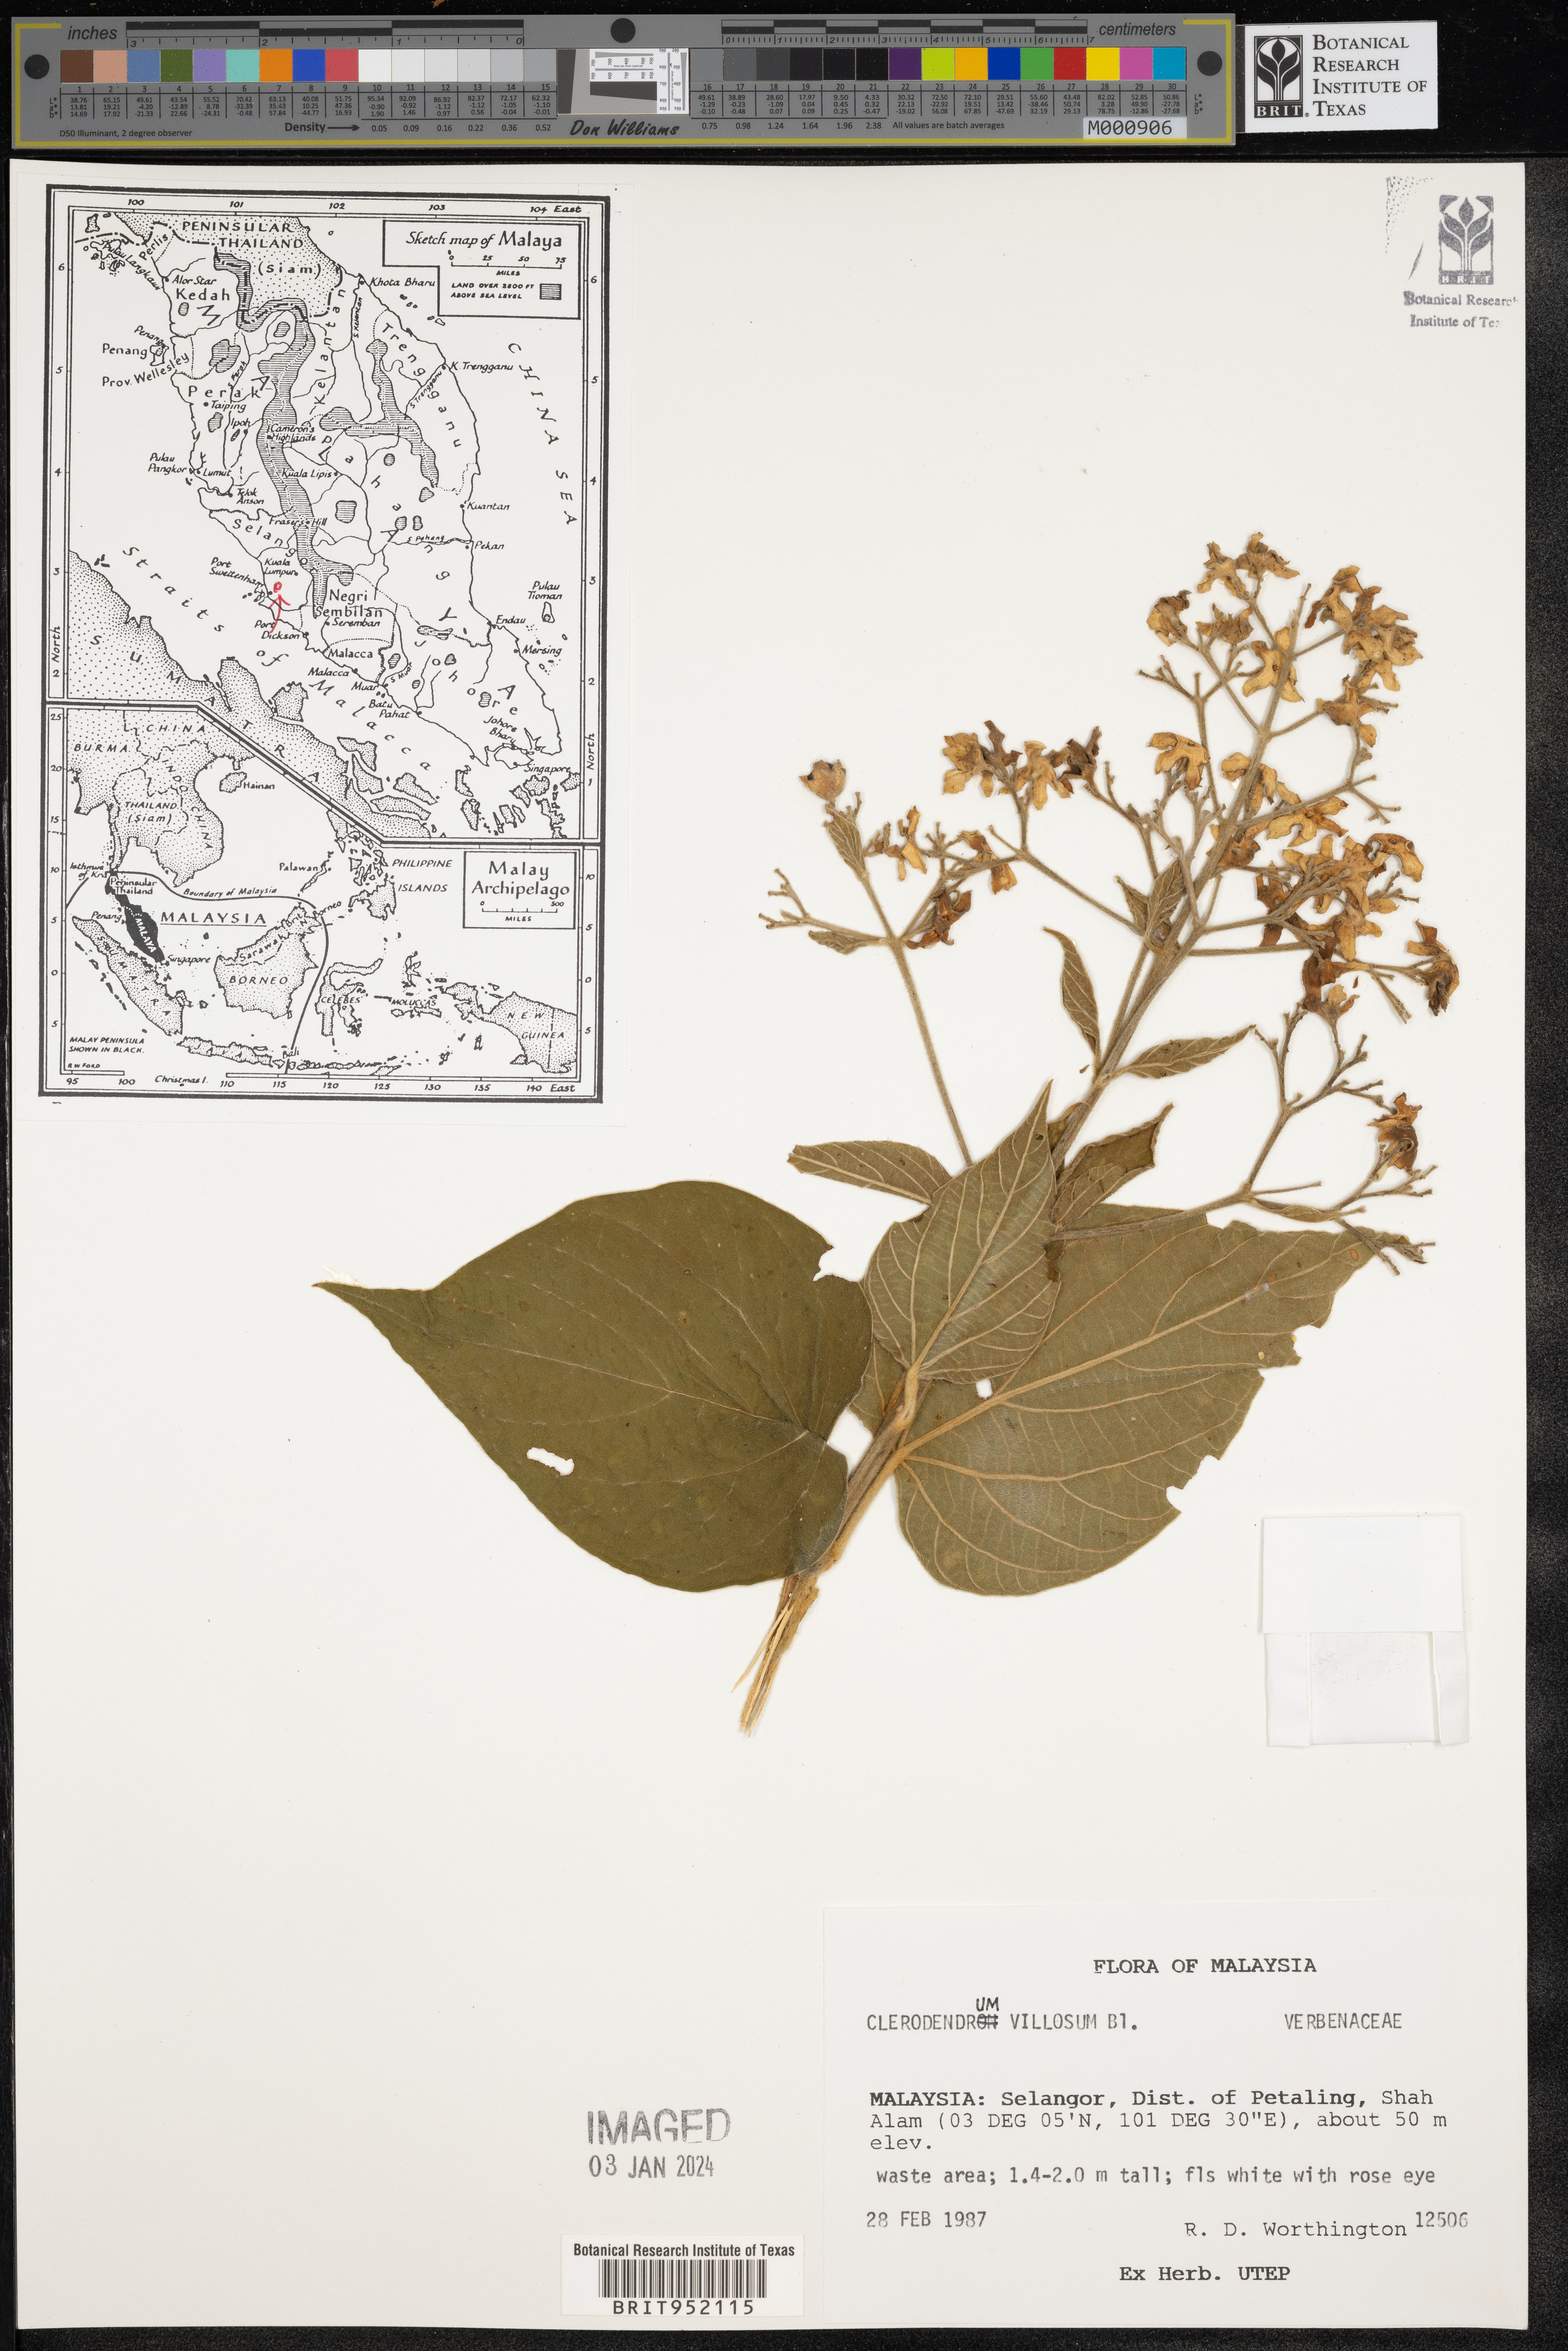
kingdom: Plantae
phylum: Tracheophyta
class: Magnoliopsida
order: Lamiales
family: Lamiaceae
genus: Clerodendrum
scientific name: Clerodendrum
